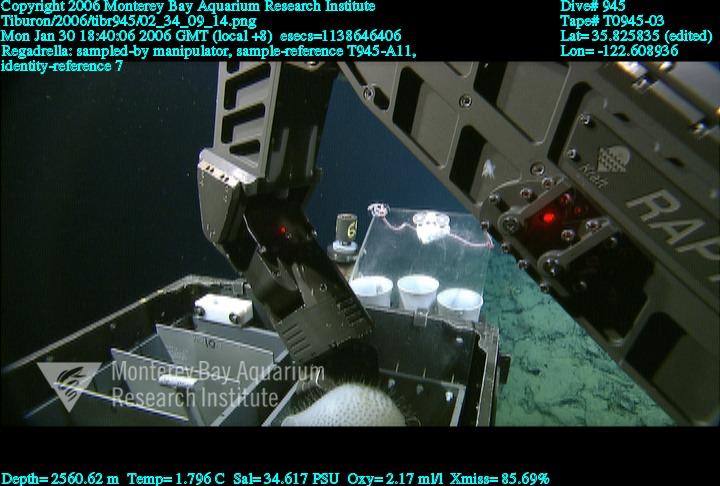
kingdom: Animalia
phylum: Porifera
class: Hexactinellida
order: Lyssacinosida
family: Euplectellidae
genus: Regadrella
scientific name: Regadrella
